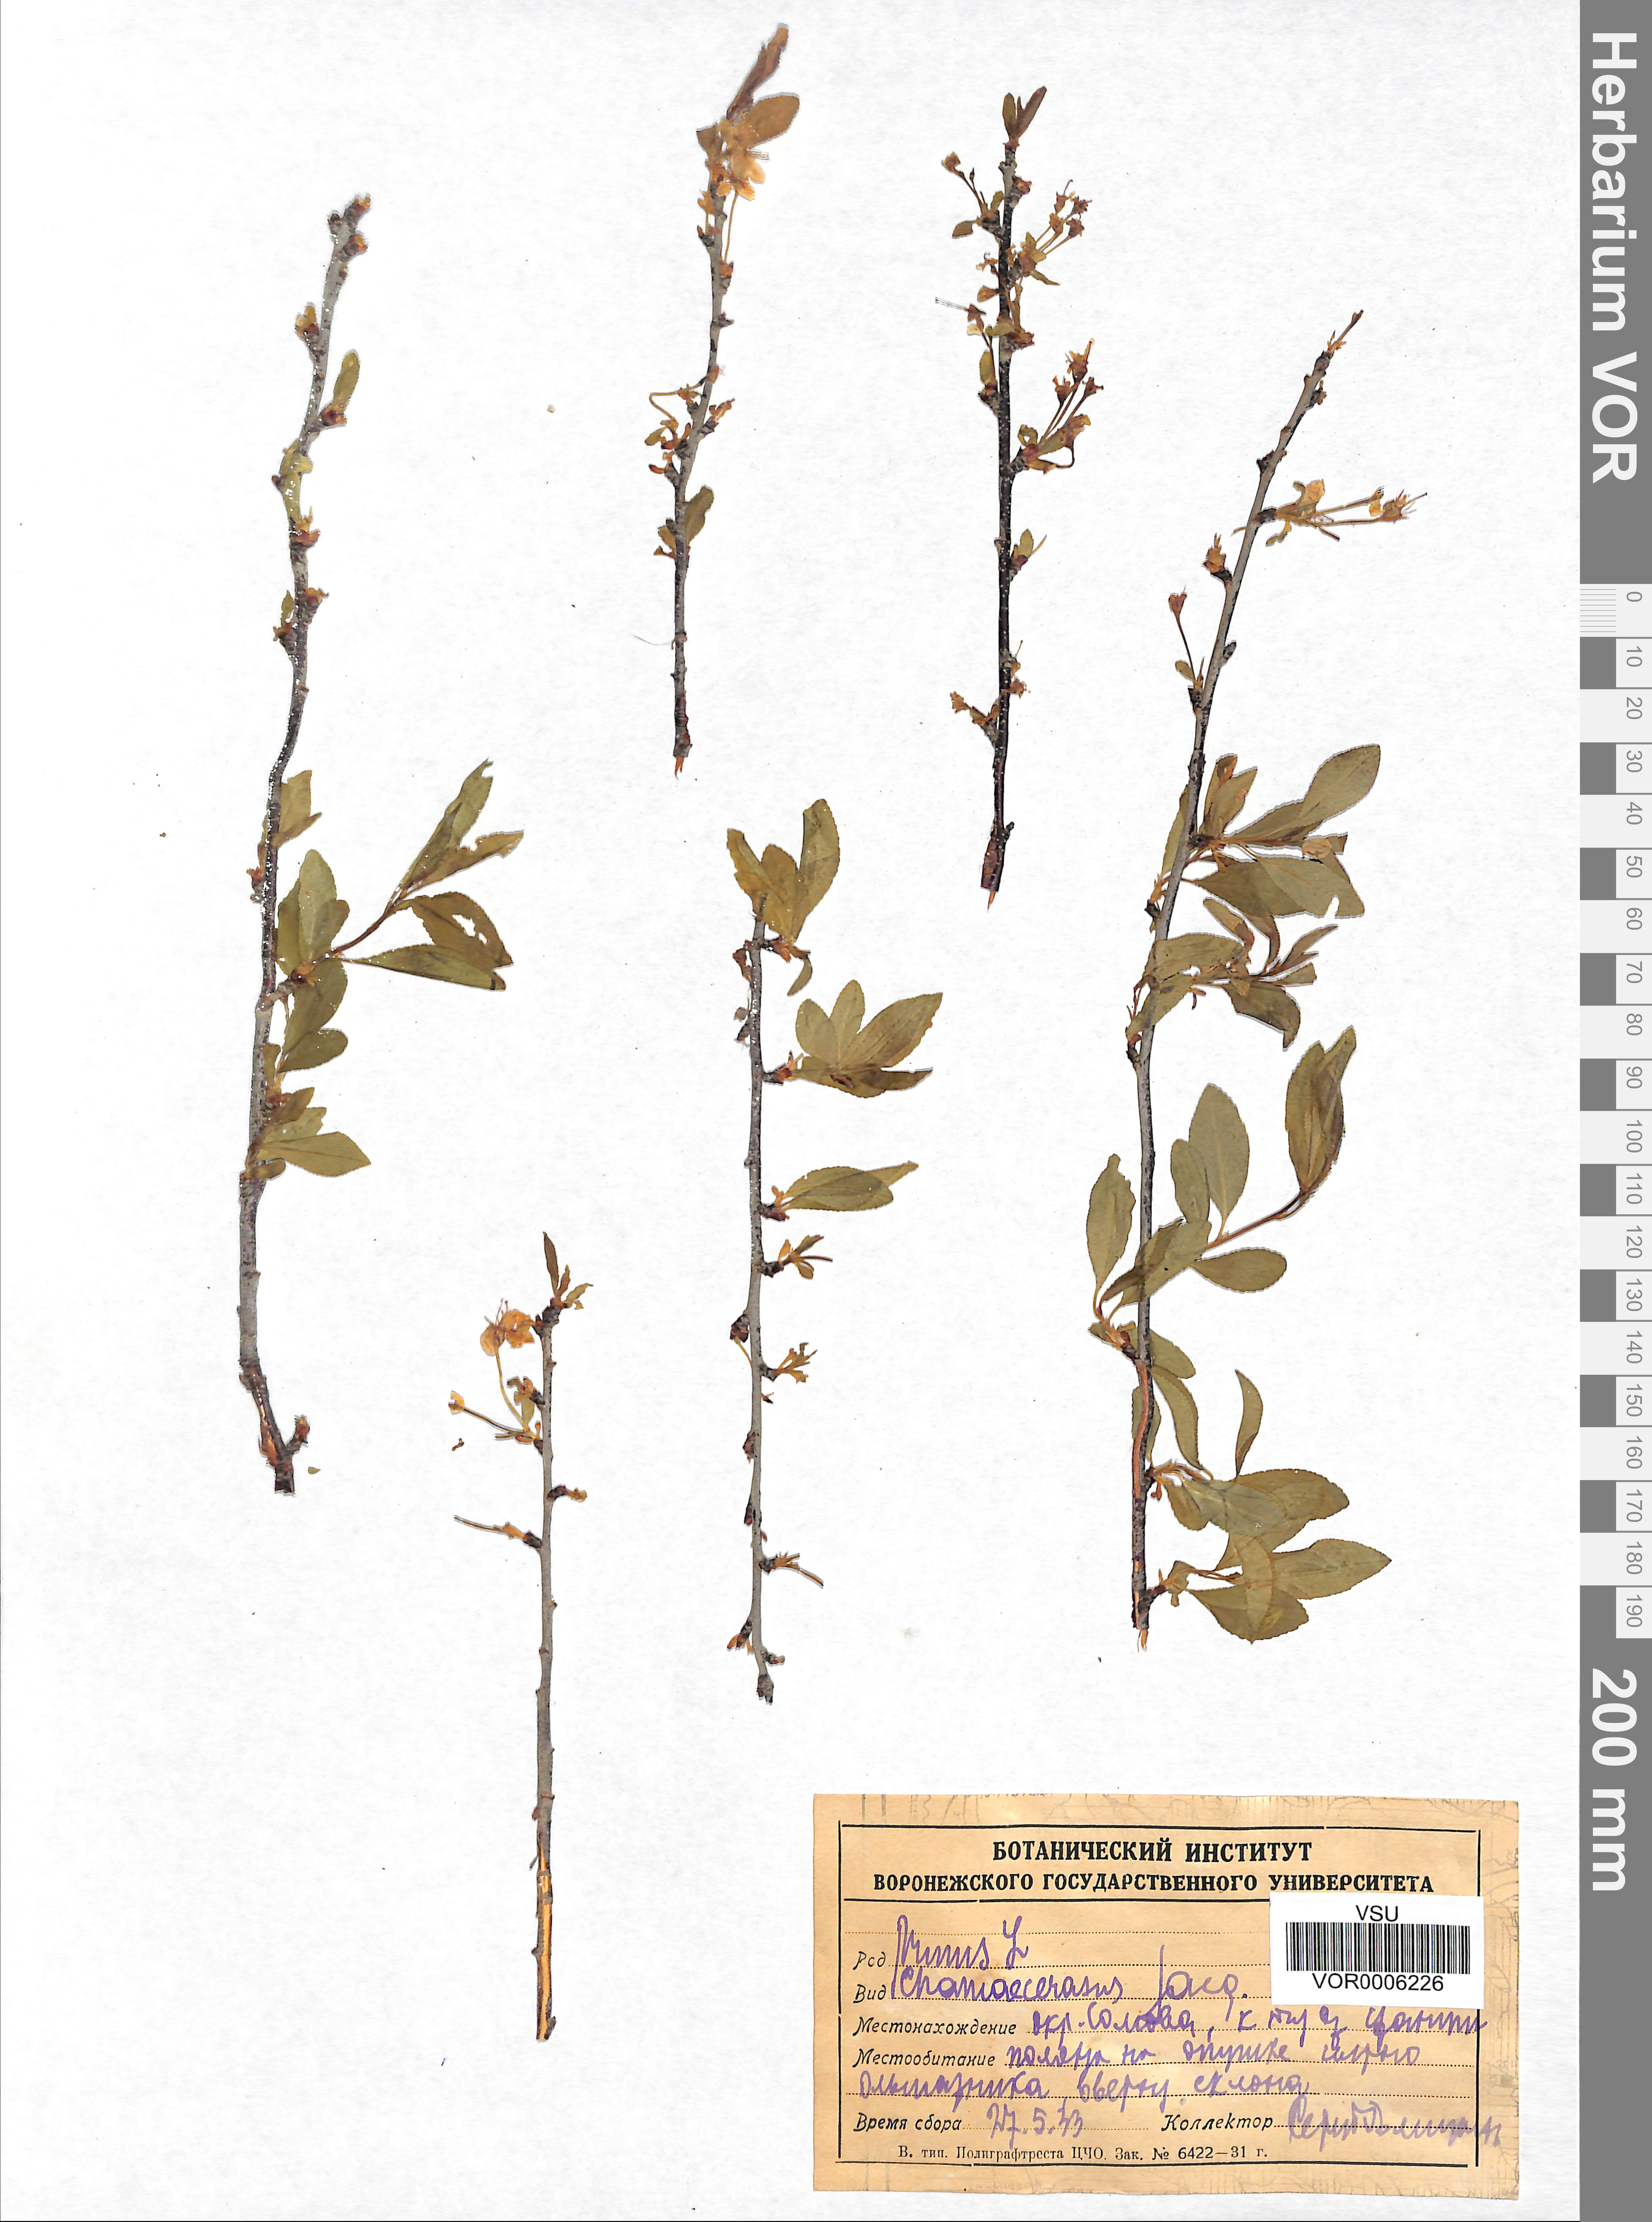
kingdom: Plantae
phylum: Tracheophyta
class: Magnoliopsida
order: Rosales
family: Rosaceae
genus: Prunus
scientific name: Prunus fruticosa
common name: European dwarf cherry
